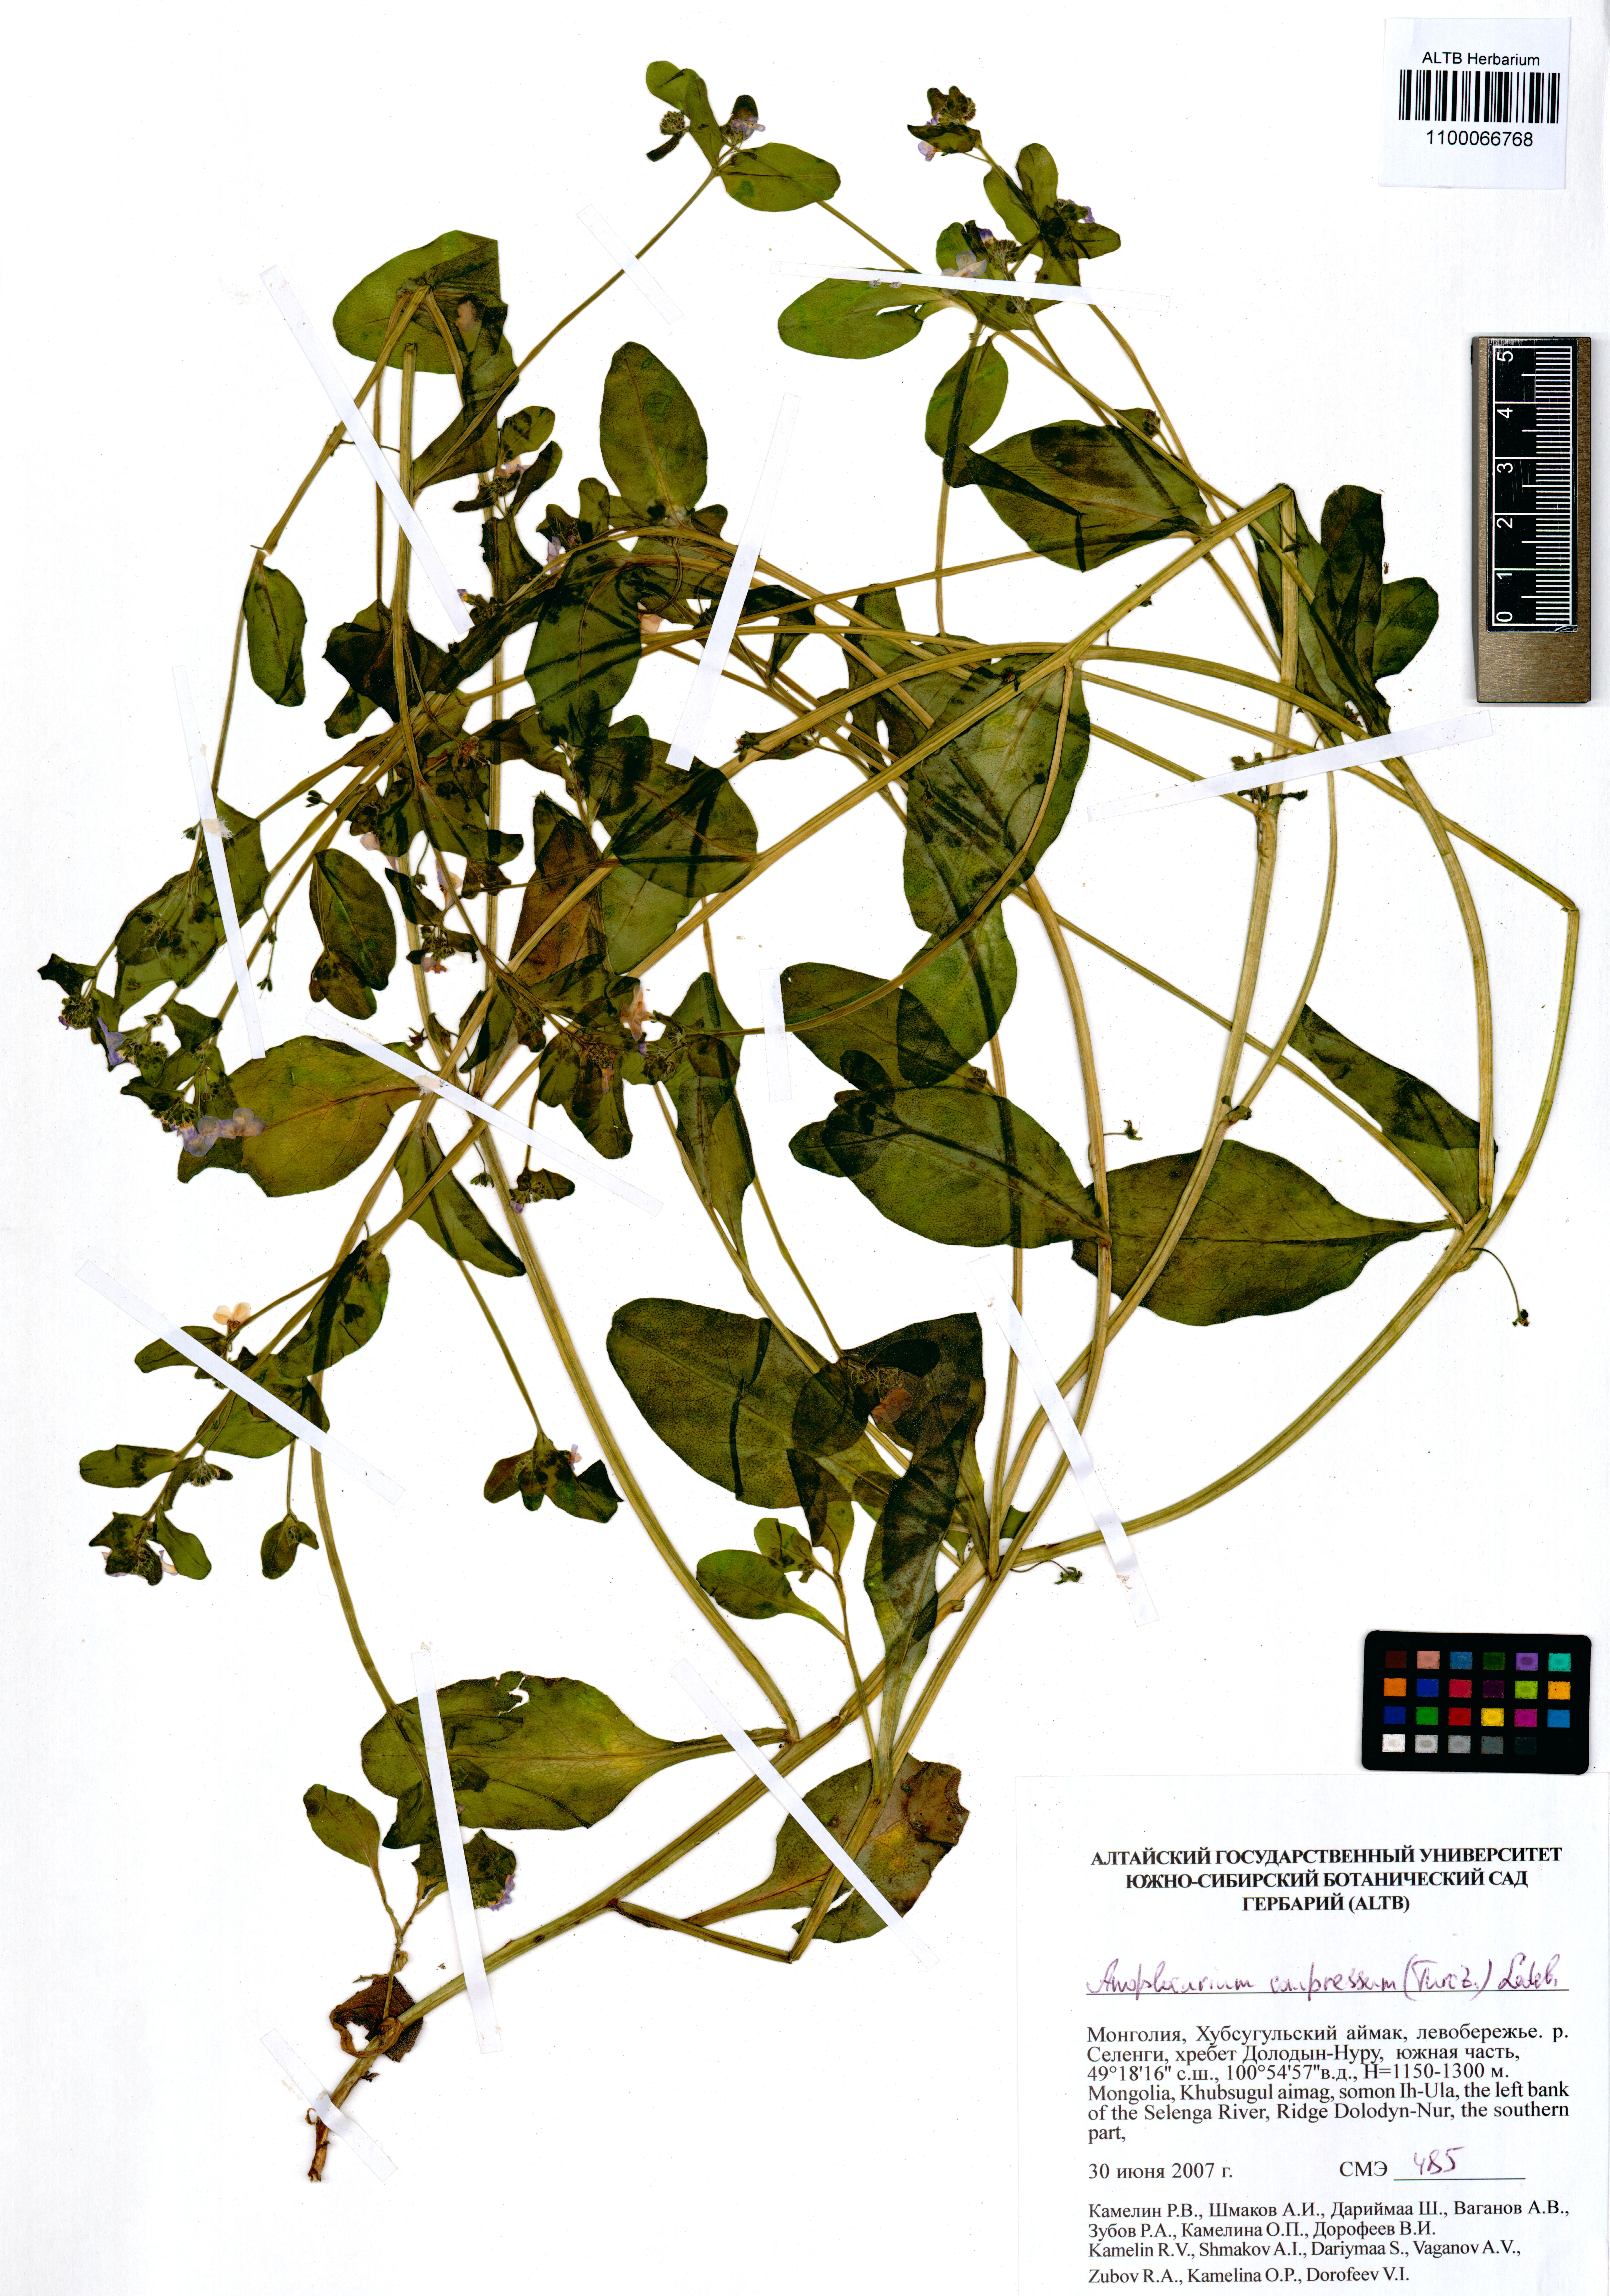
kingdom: Plantae
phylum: Tracheophyta
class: Magnoliopsida
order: Boraginales
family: Boraginaceae
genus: Anoplocaryum
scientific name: Anoplocaryum compressum
